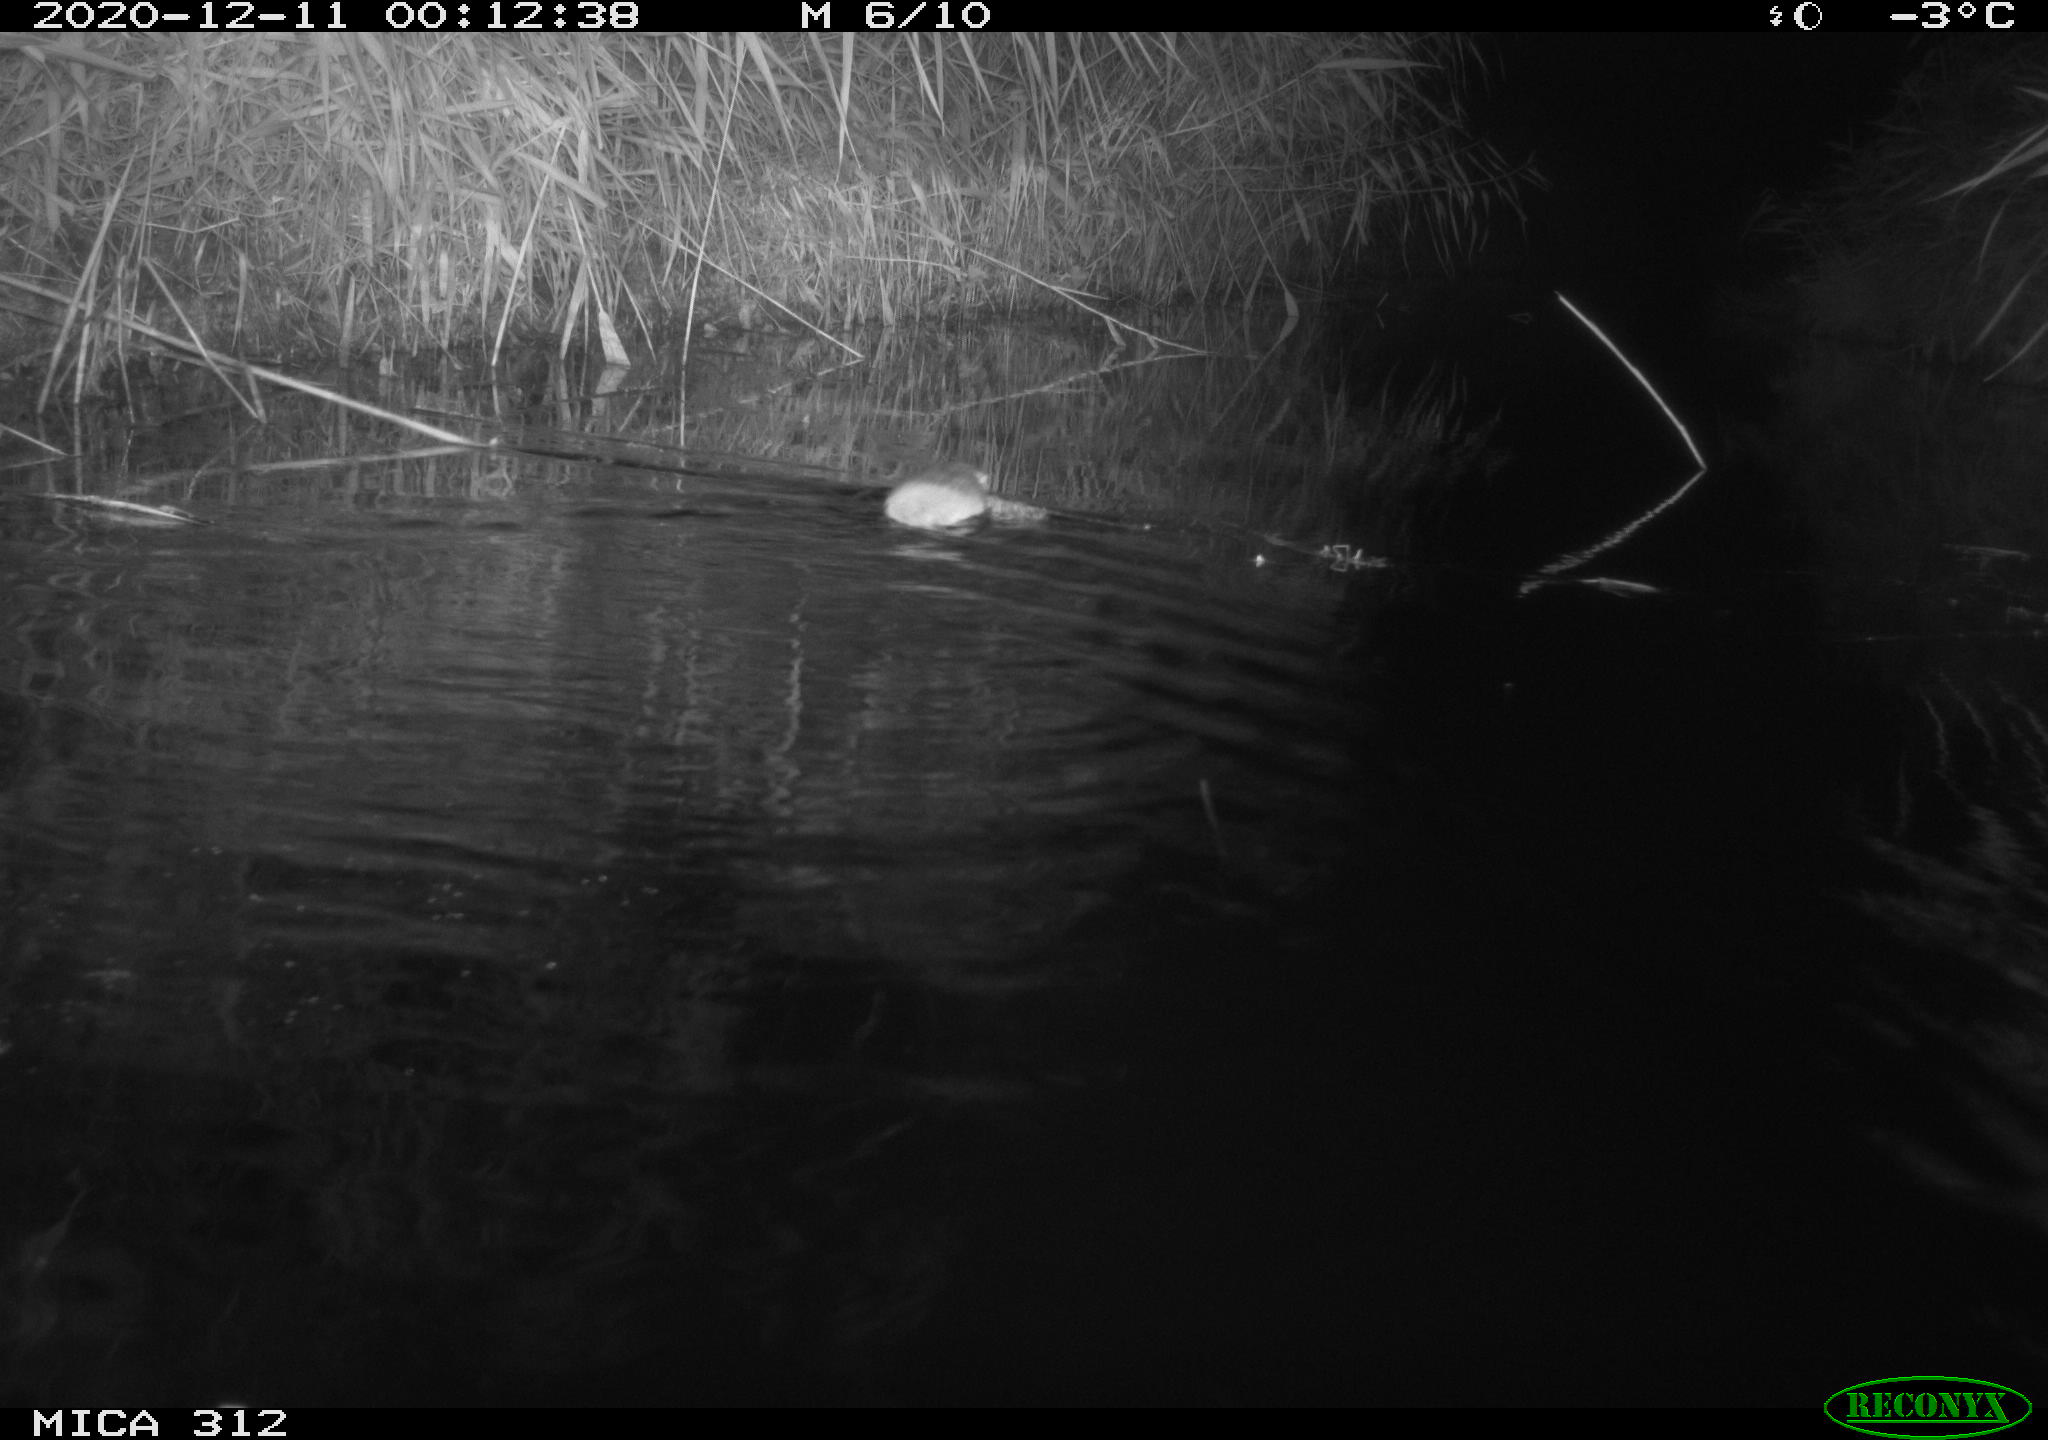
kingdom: Animalia
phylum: Chordata
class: Mammalia
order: Rodentia
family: Muridae
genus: Rattus
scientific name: Rattus norvegicus
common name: Brown rat
